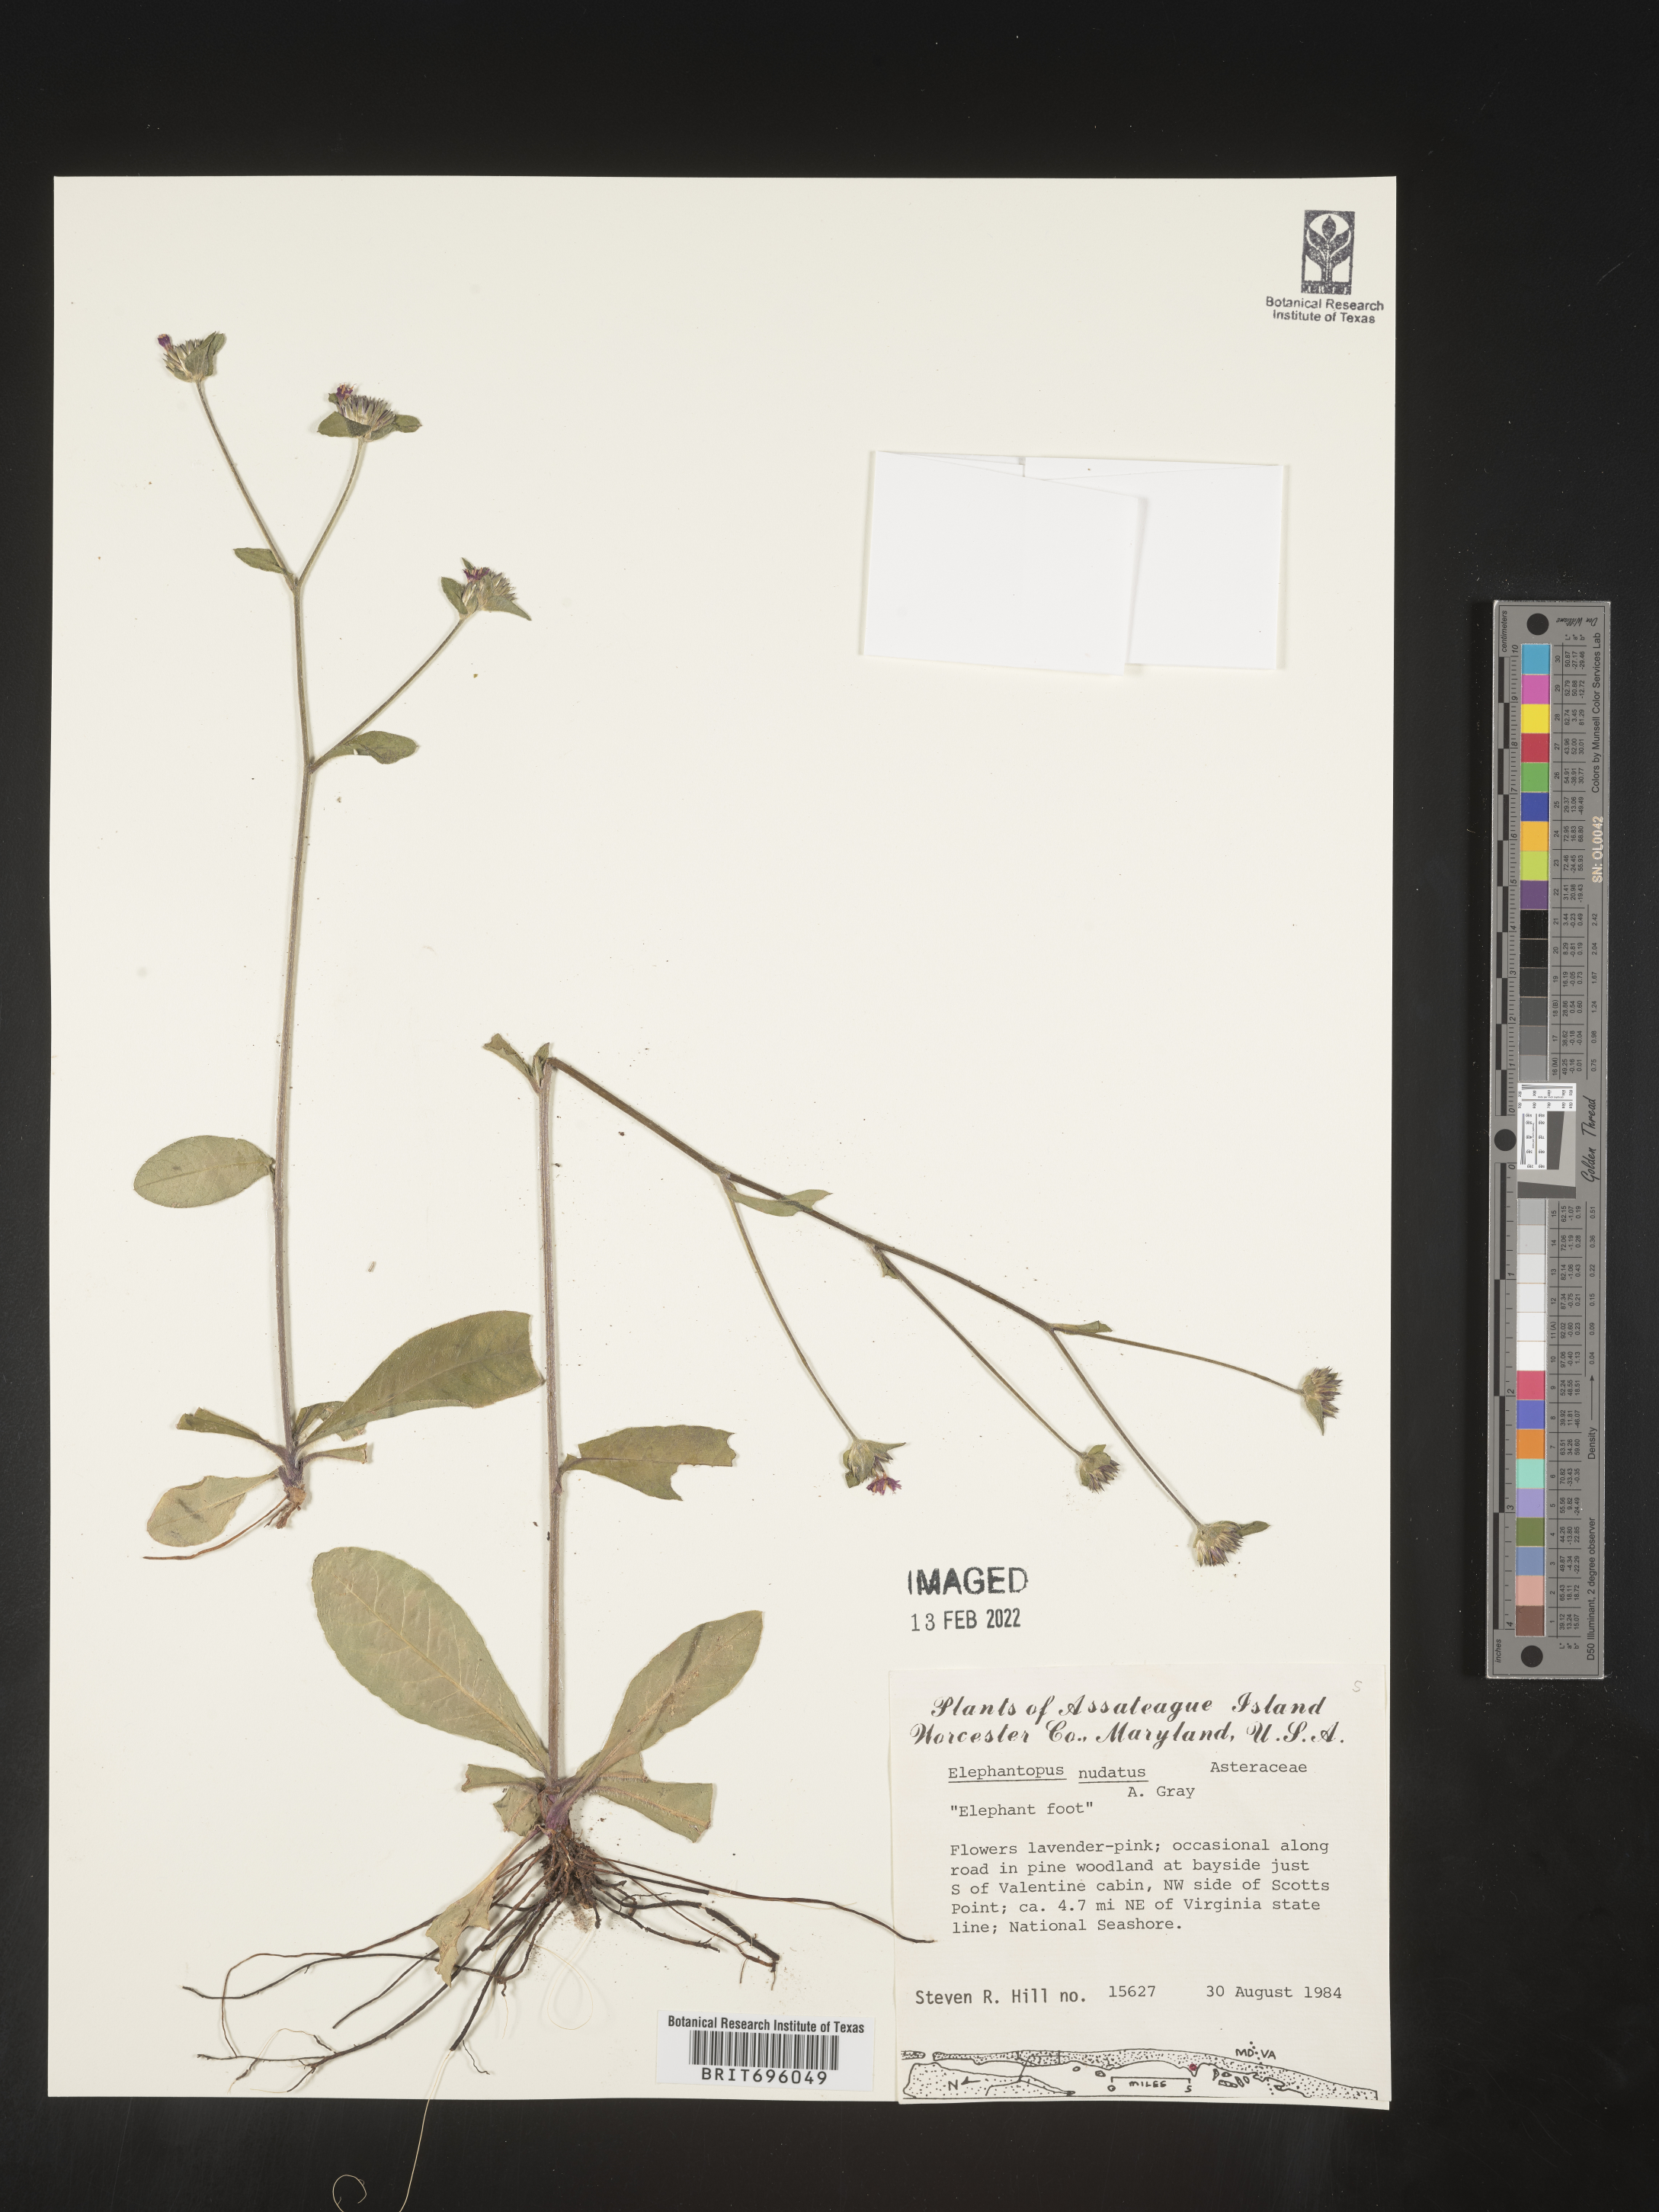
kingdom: Plantae
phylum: Tracheophyta
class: Magnoliopsida
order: Asterales
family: Asteraceae
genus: Elephantopus
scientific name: Elephantopus nudatus
